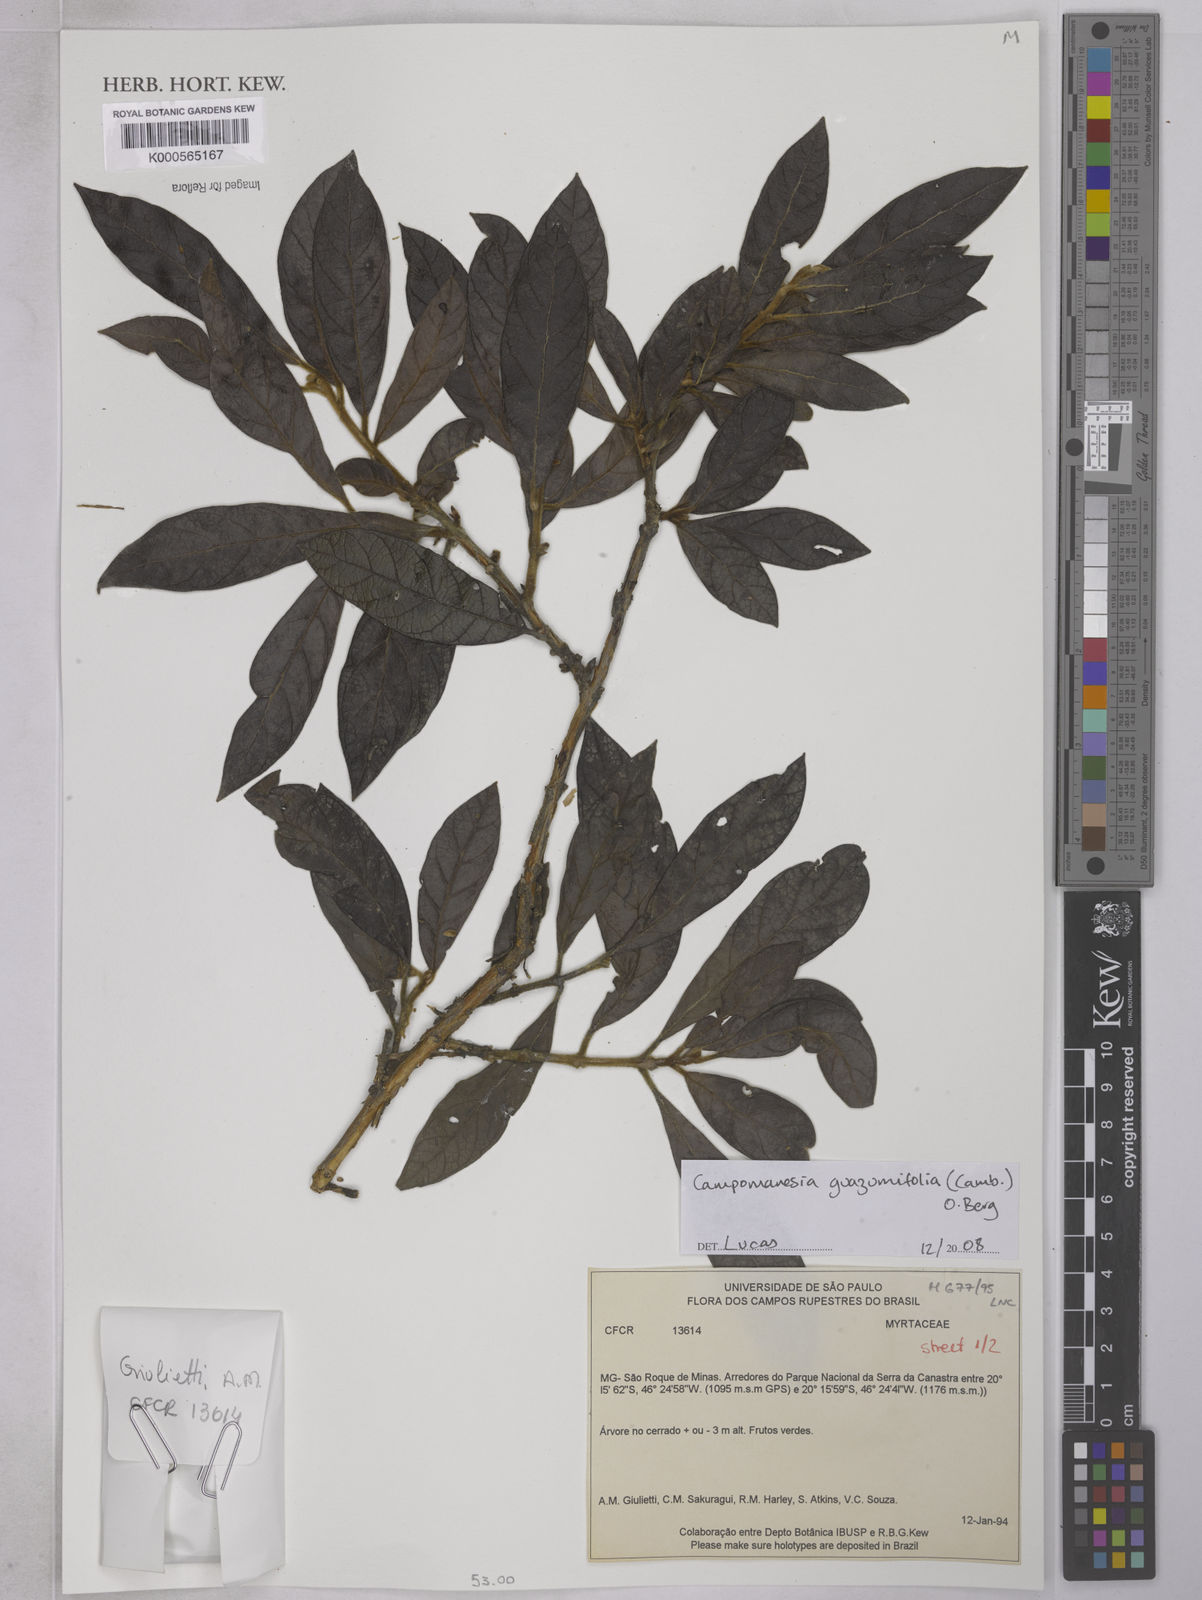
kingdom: Plantae
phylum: Tracheophyta
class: Magnoliopsida
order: Myrtales
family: Myrtaceae
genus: Campomanesia
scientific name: Campomanesia guazumifolia
